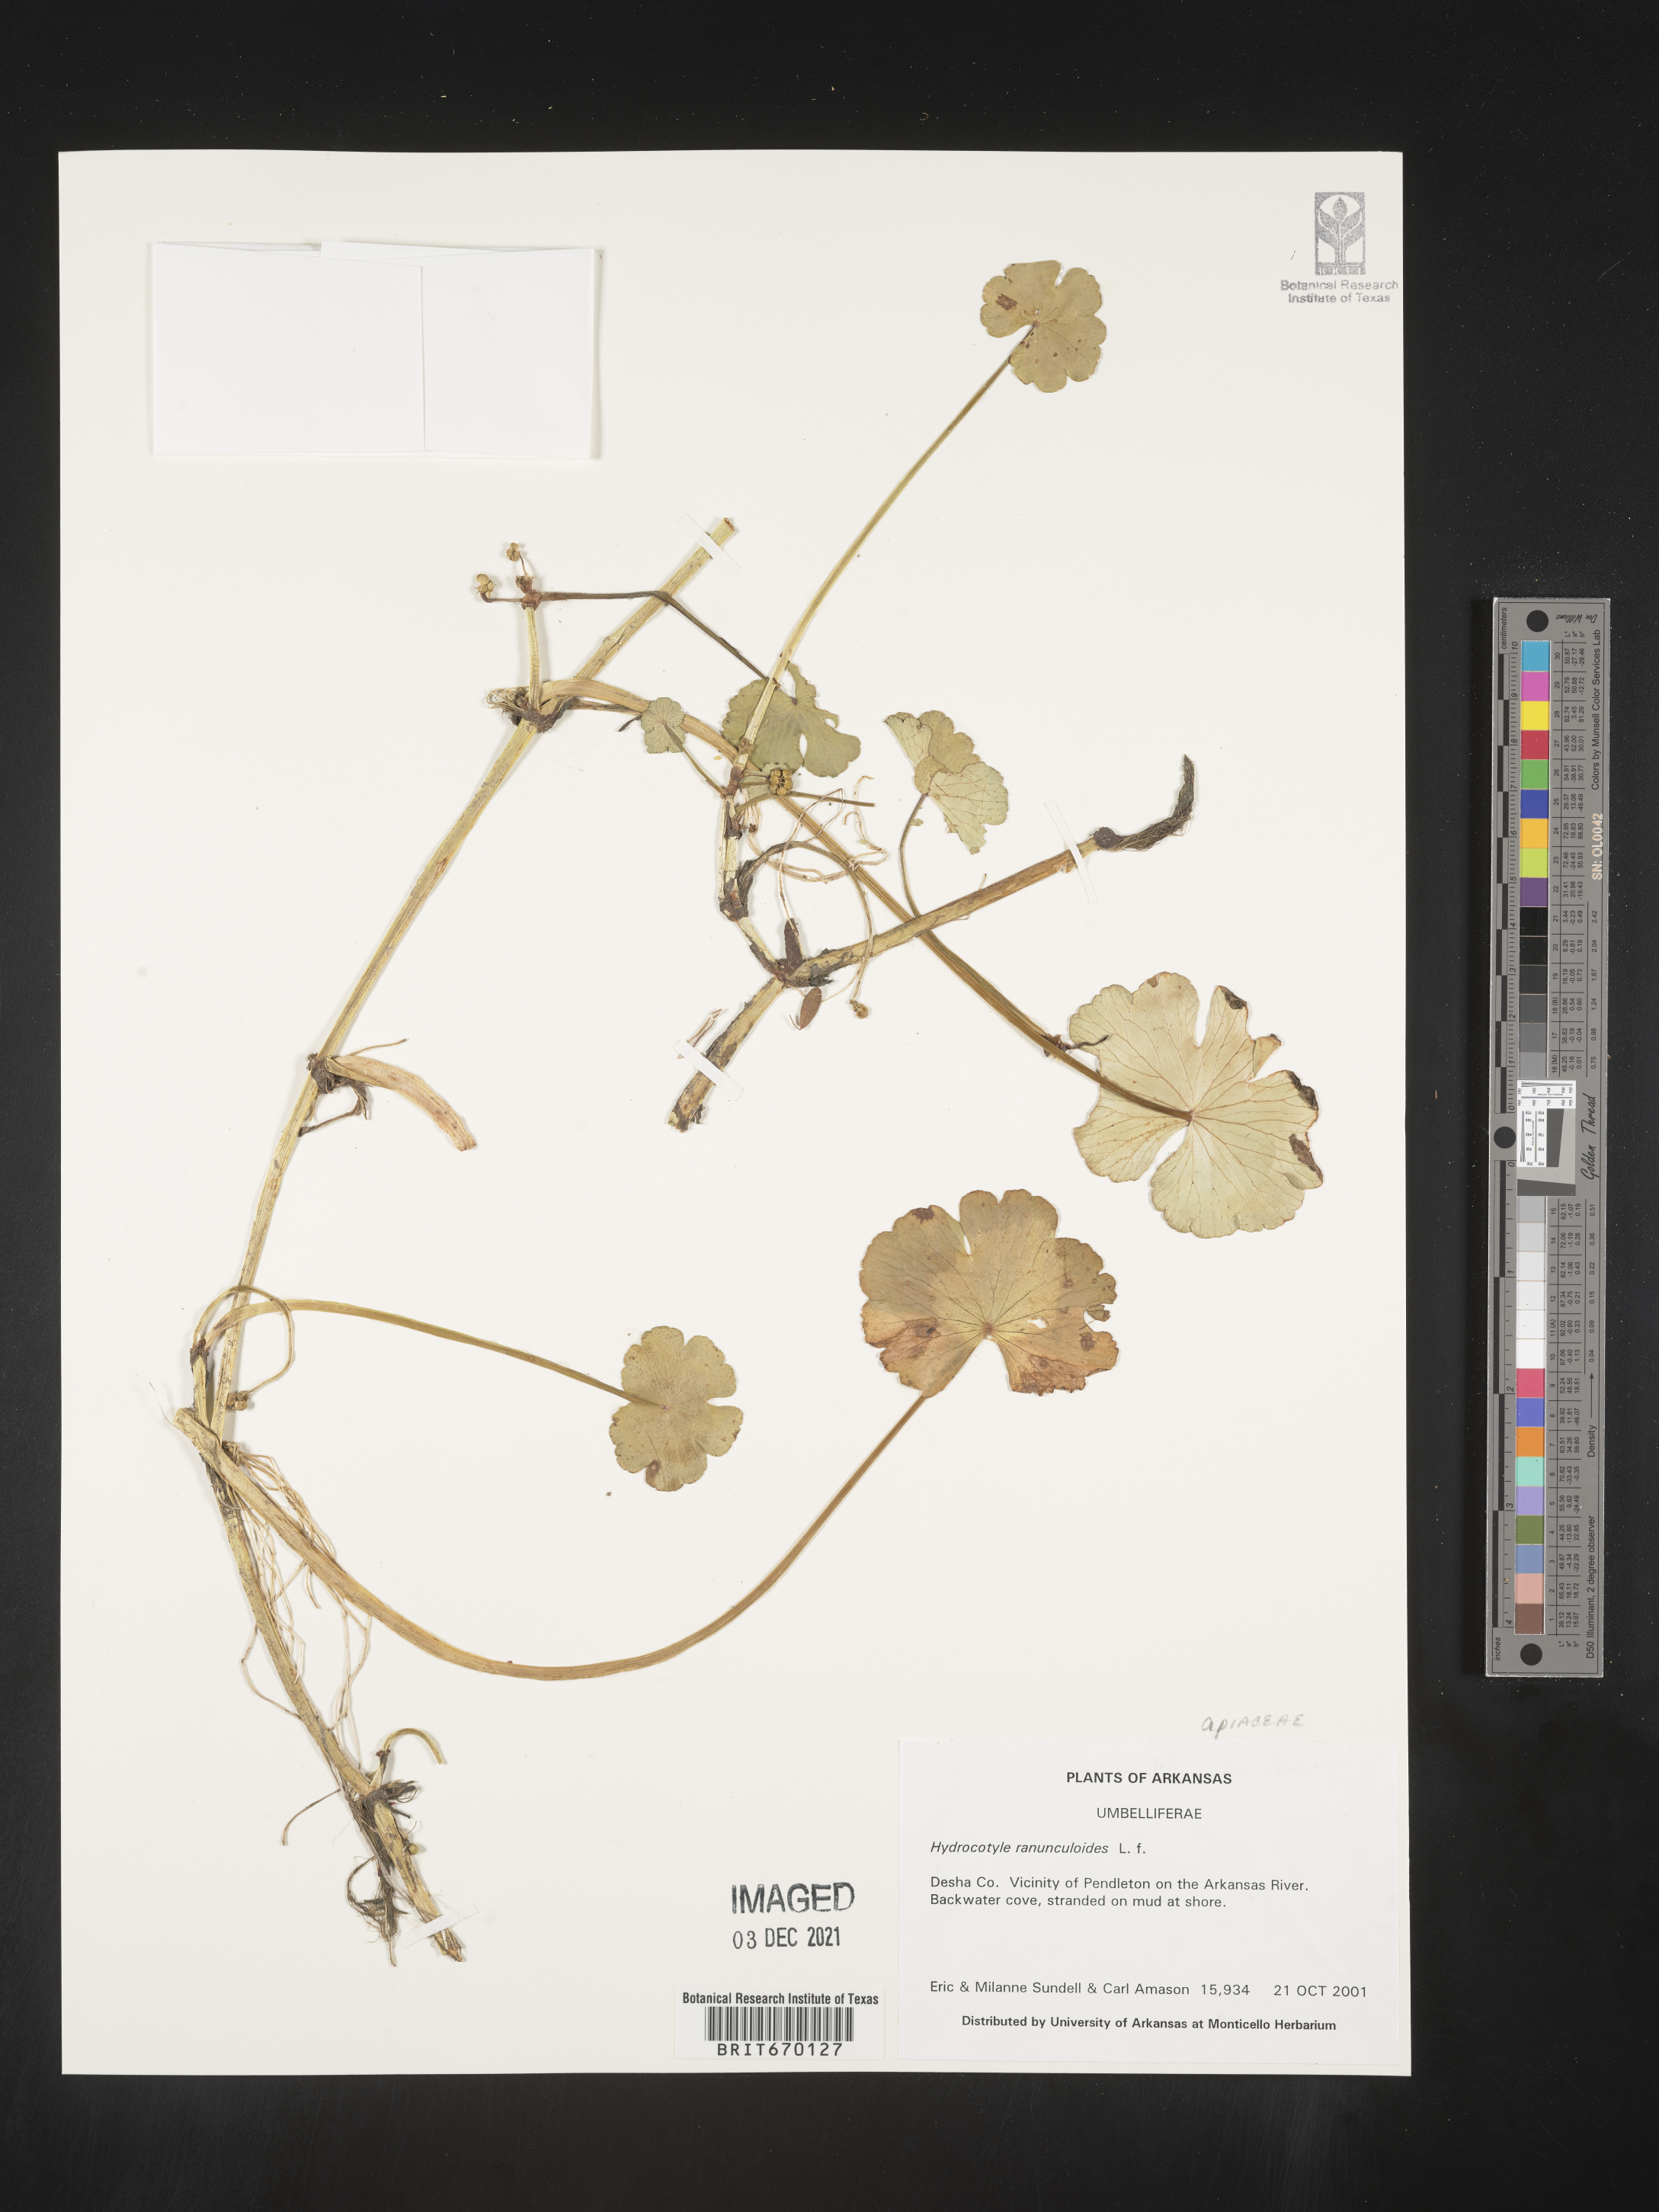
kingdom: Plantae
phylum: Tracheophyta
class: Magnoliopsida
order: Apiales
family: Araliaceae
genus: Hydrocotyle
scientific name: Hydrocotyle ranunculoides
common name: Floating pennywort
